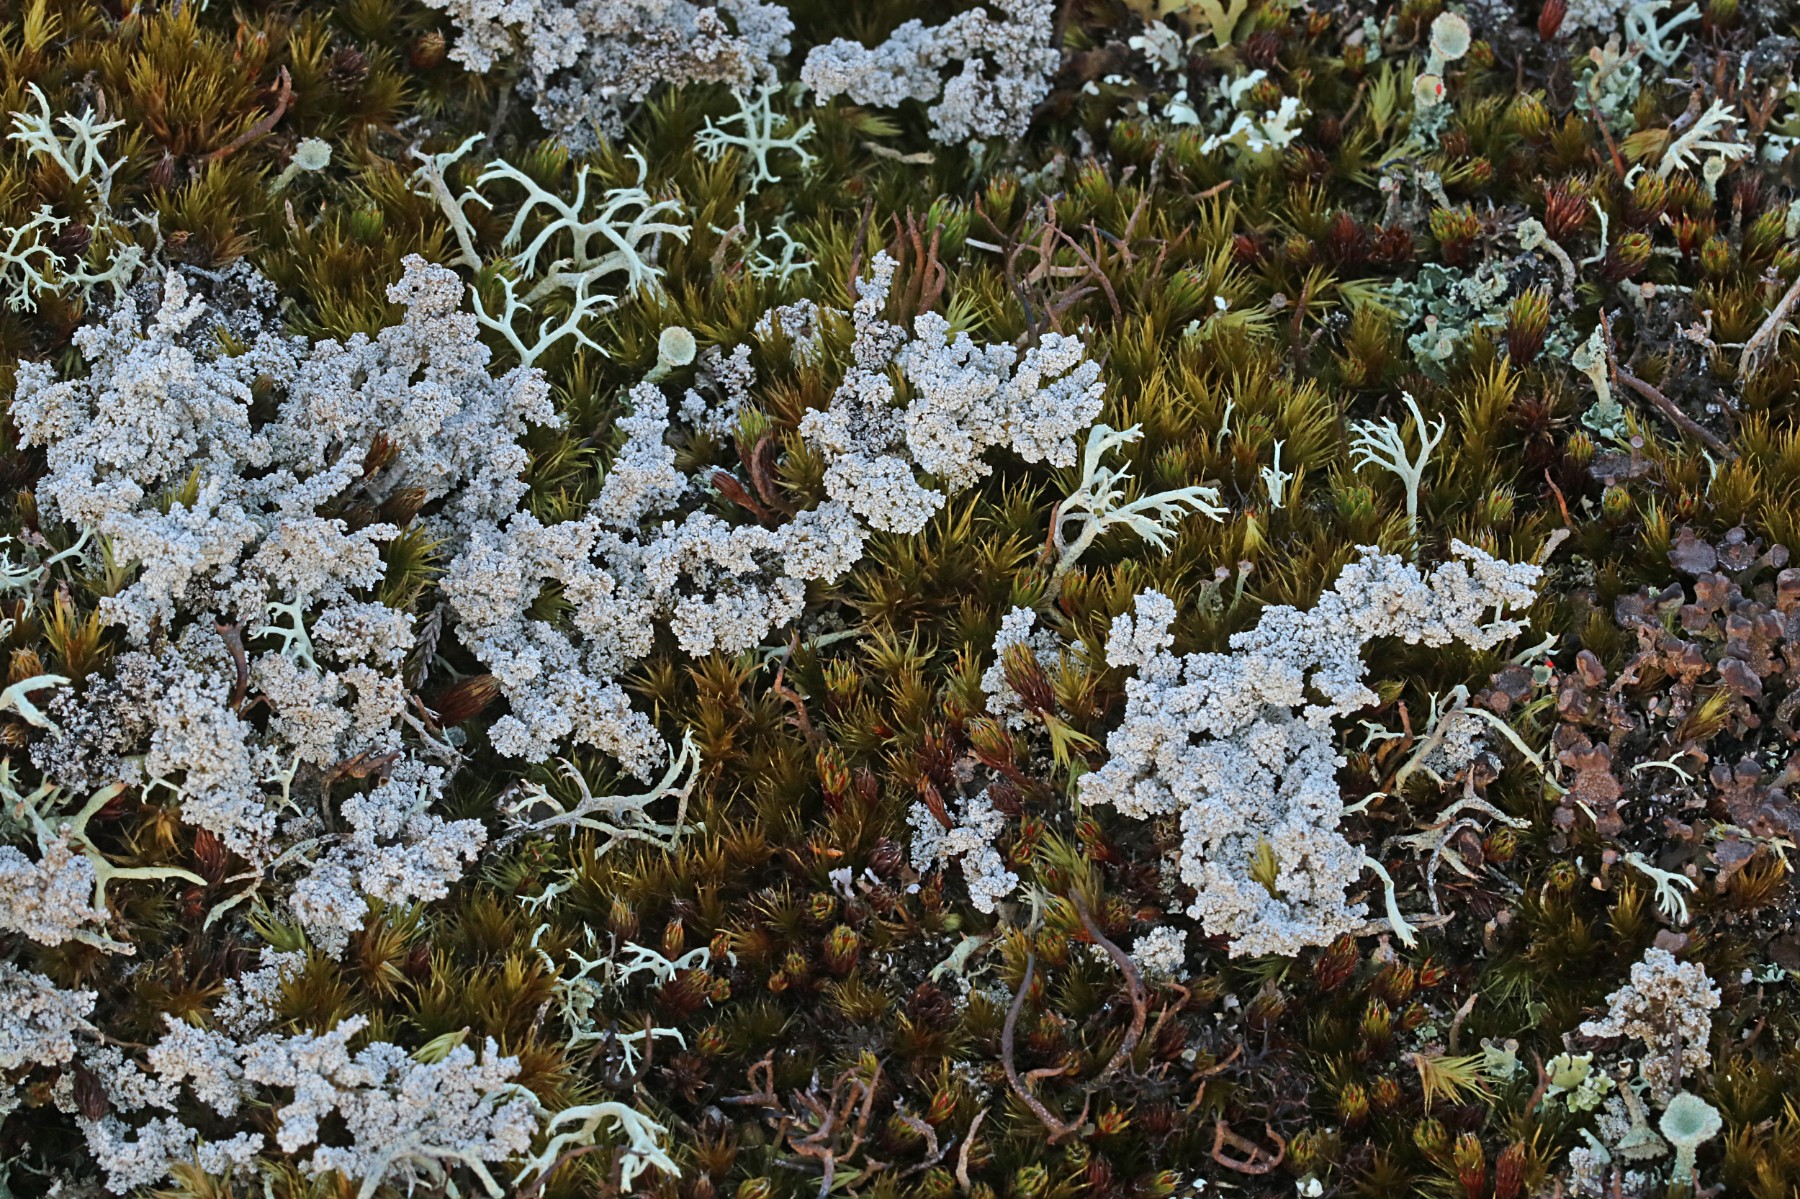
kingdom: Fungi
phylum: Ascomycota
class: Lecanoromycetes
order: Lecanorales
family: Stereocaulaceae
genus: Stereocaulon
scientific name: Stereocaulon saxatile
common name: klit-korallav
